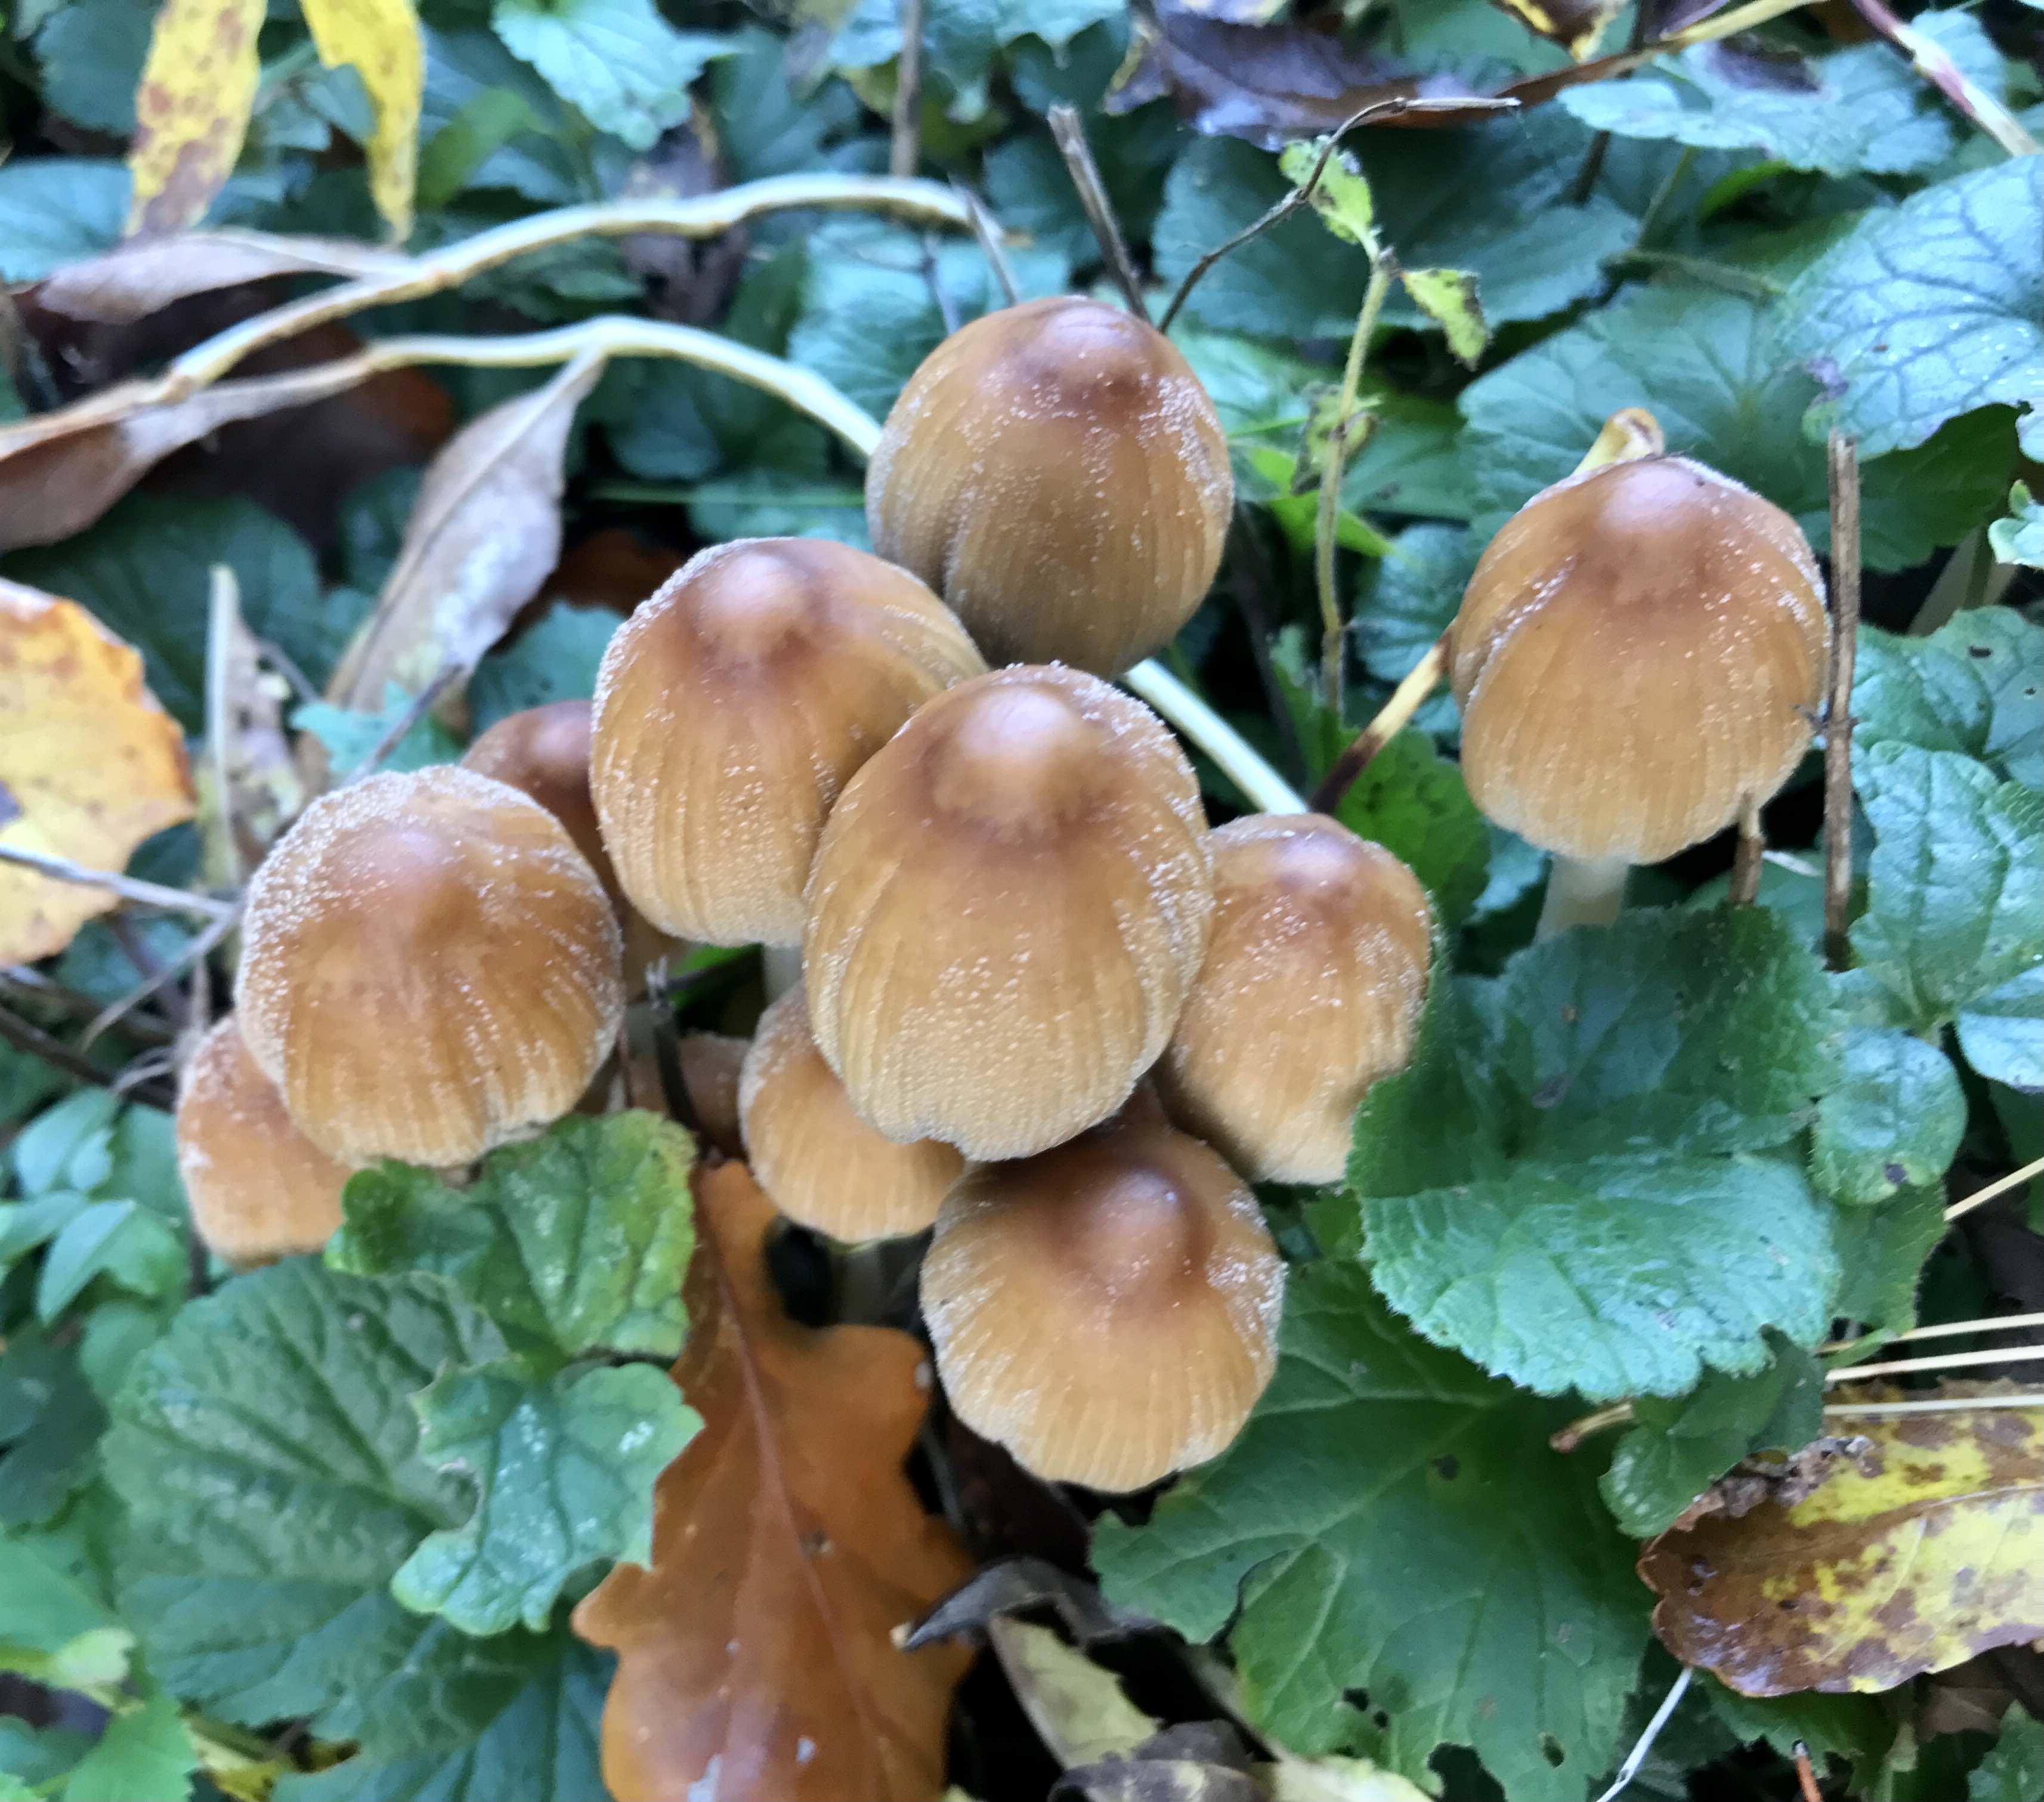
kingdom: Fungi
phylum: Basidiomycota
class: Agaricomycetes
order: Agaricales
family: Psathyrellaceae
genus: Coprinellus
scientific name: Coprinellus micaceus
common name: glimmer-blækhat
